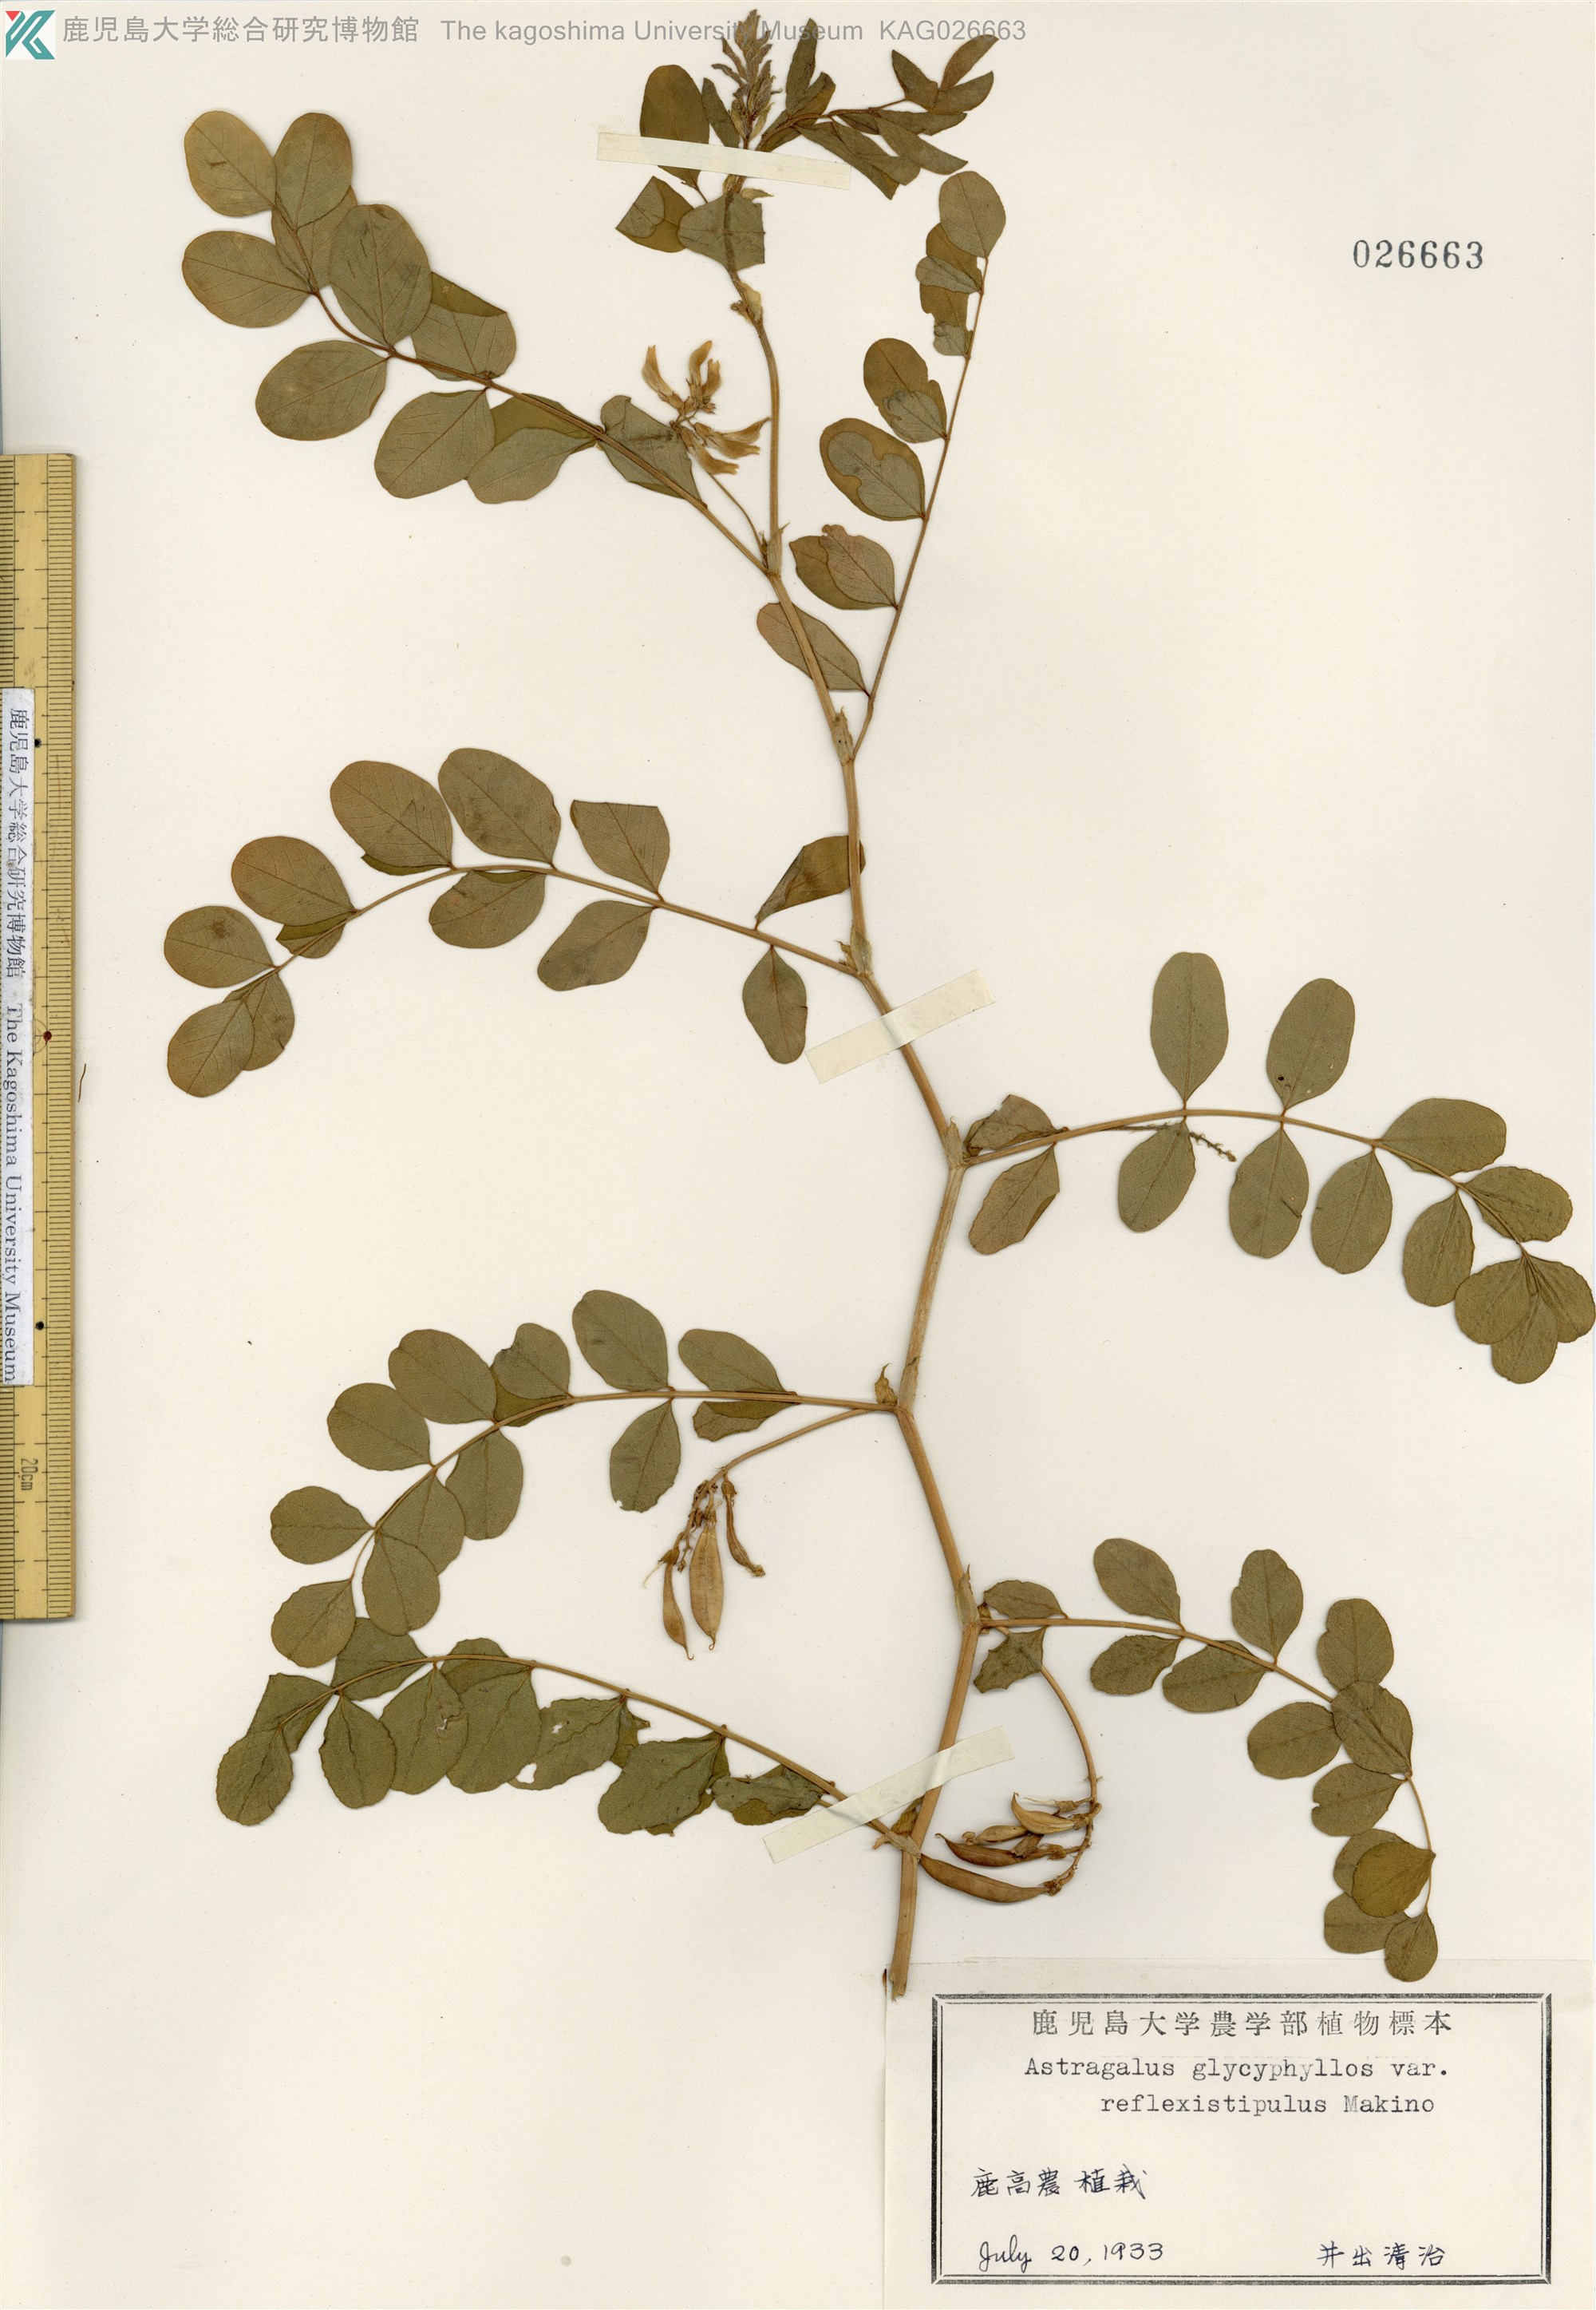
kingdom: Plantae
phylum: Tracheophyta
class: Magnoliopsida
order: Fabales
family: Fabaceae
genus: Astragalus
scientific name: Astragalus reflexistipulus
